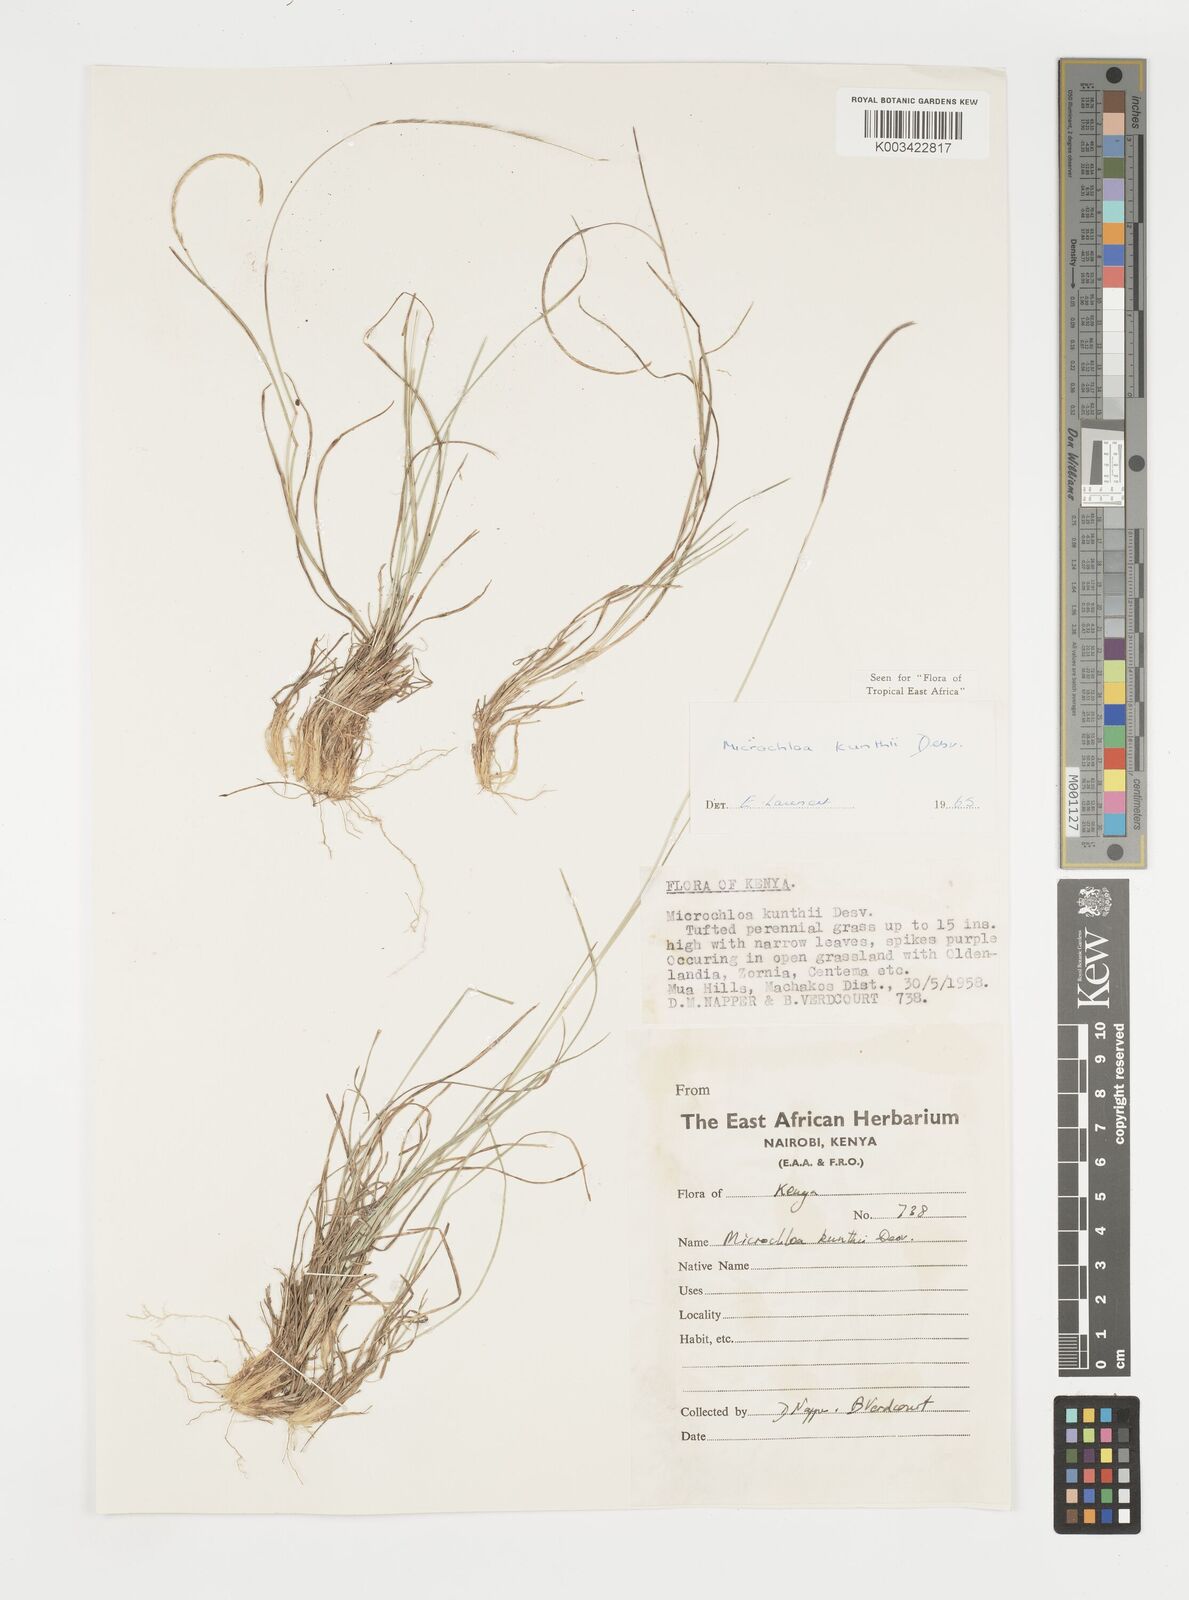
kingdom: Plantae
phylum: Tracheophyta
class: Liliopsida
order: Poales
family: Poaceae
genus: Microchloa
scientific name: Microchloa kunthii
